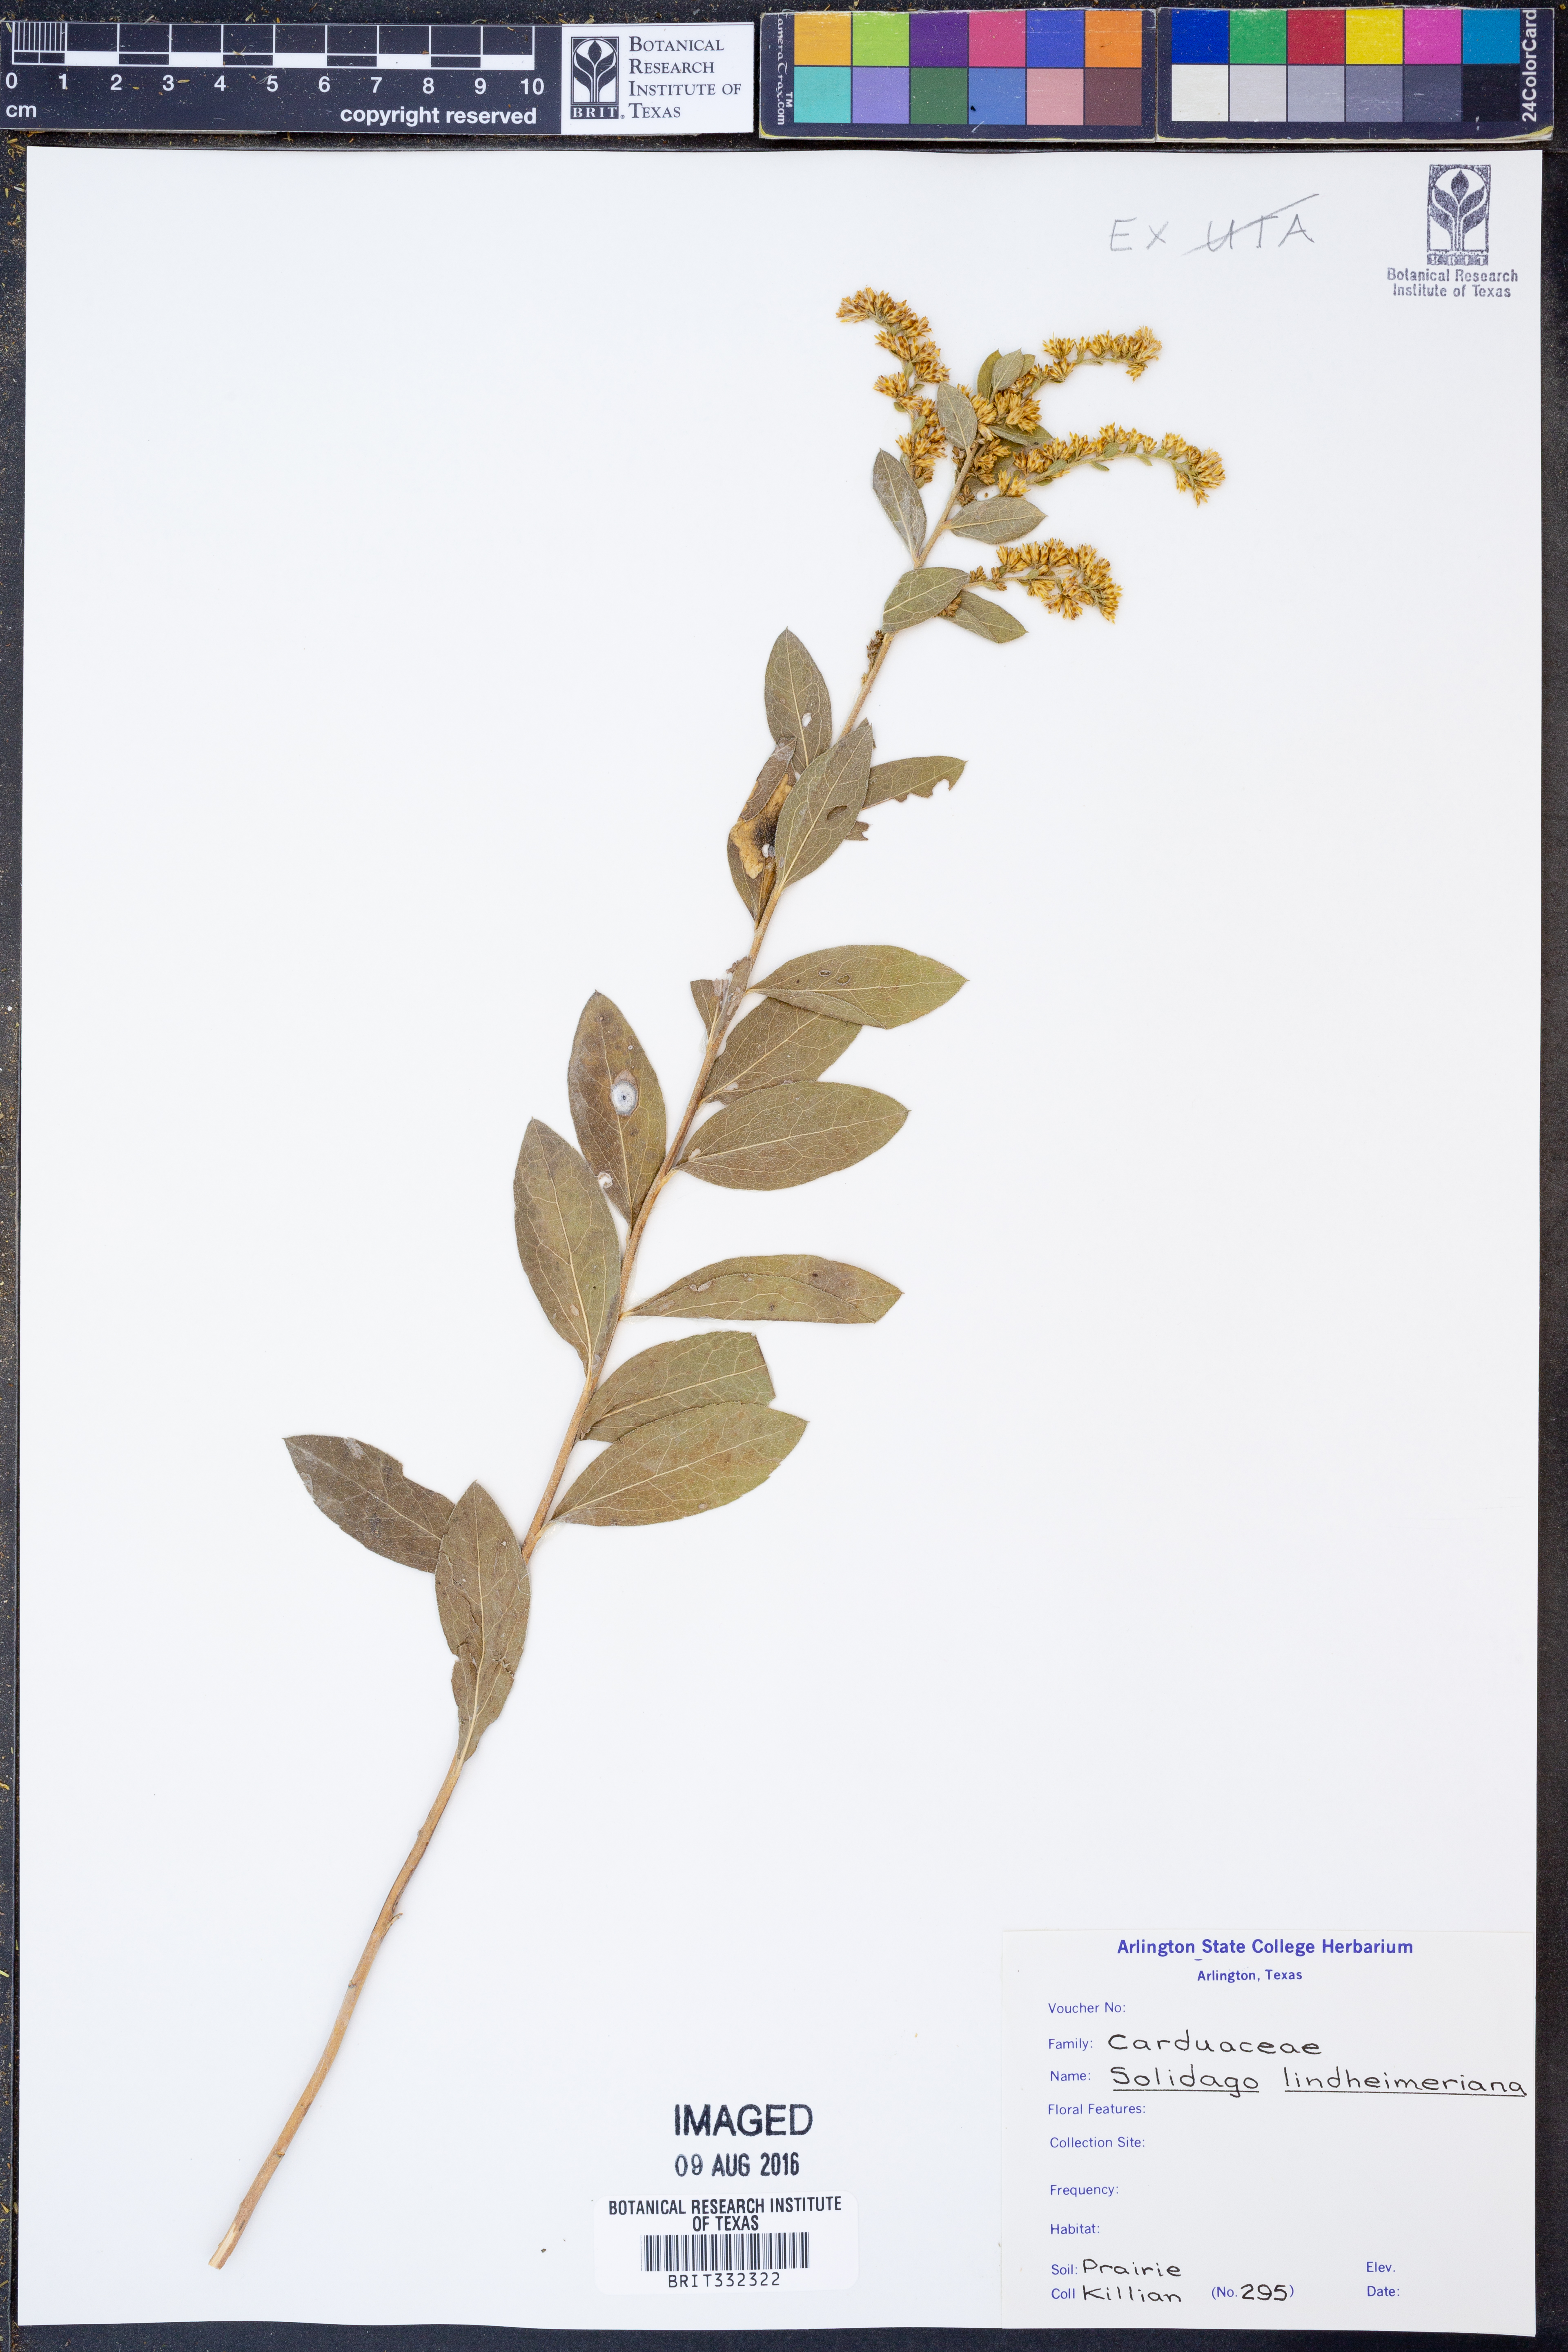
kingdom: Plantae
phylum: Tracheophyta
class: Magnoliopsida
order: Asterales
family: Asteraceae
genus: Solidago
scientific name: Solidago petiolaris
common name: Downy ragged goldenrod
